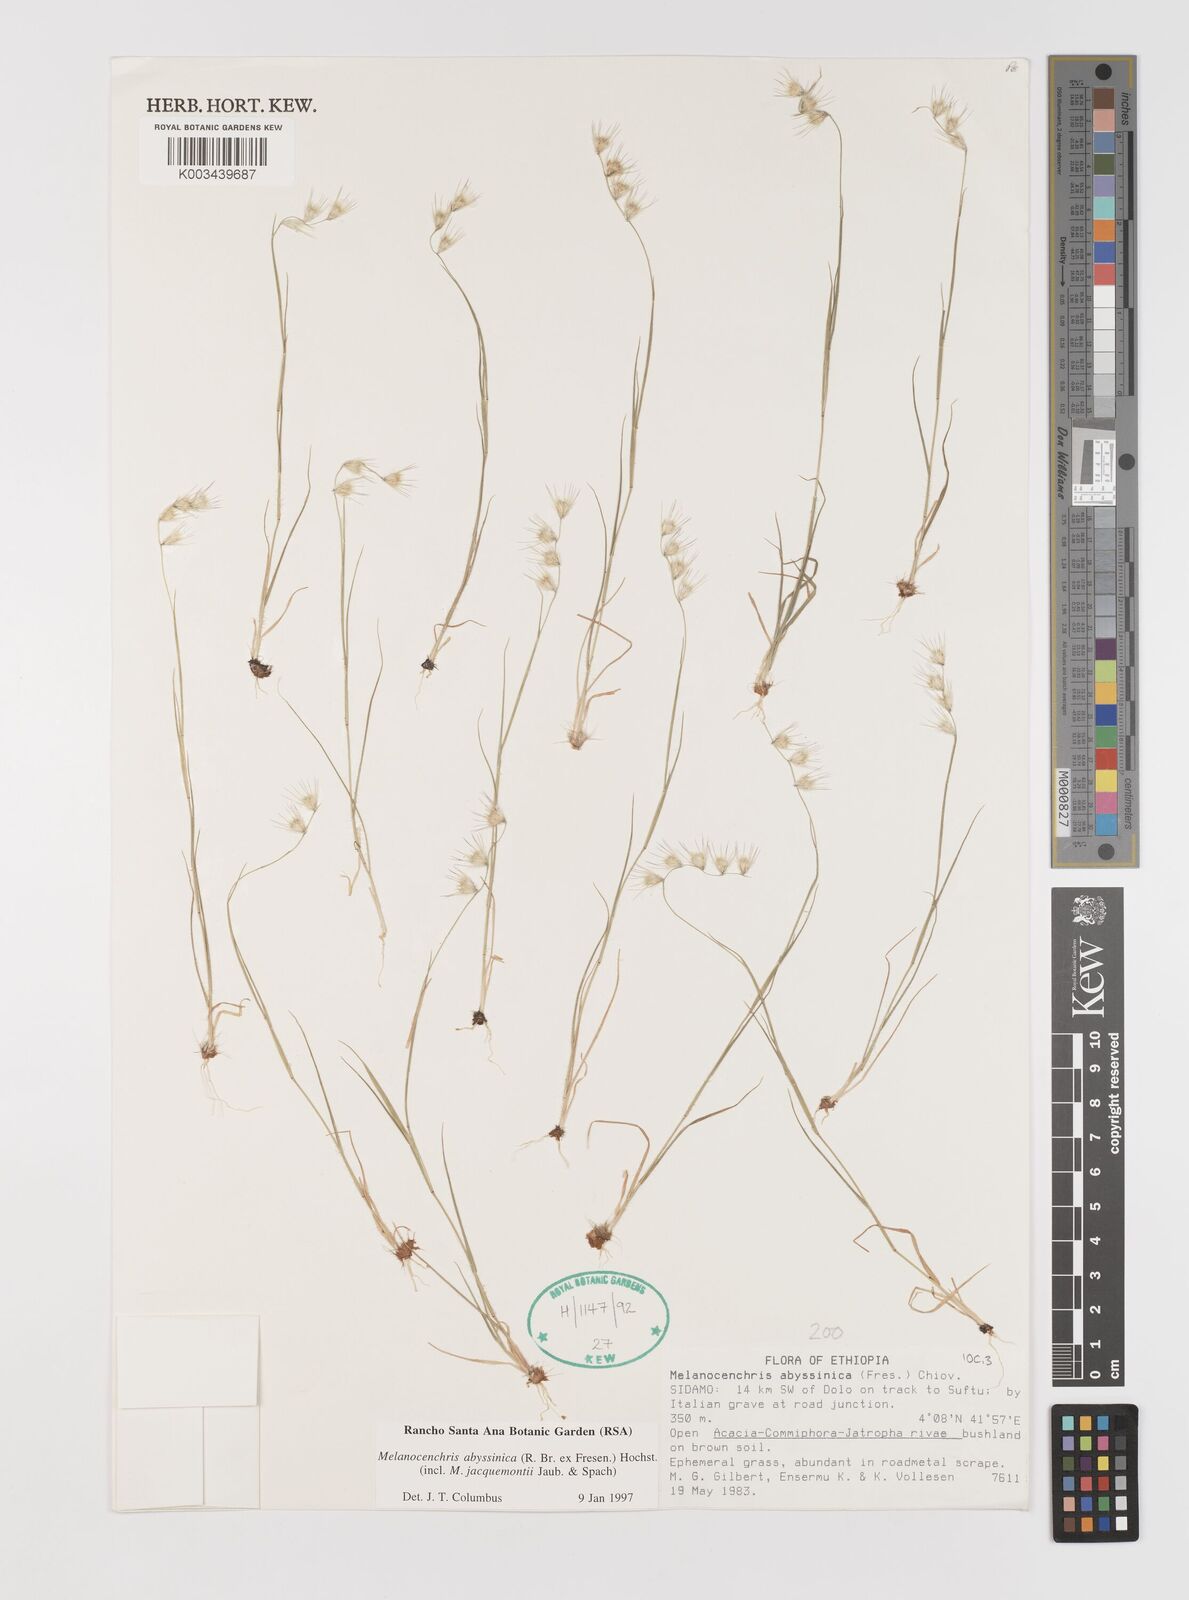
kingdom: Plantae
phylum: Tracheophyta
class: Liliopsida
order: Poales
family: Poaceae
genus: Melanocenchris
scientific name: Melanocenchris abyssinica
